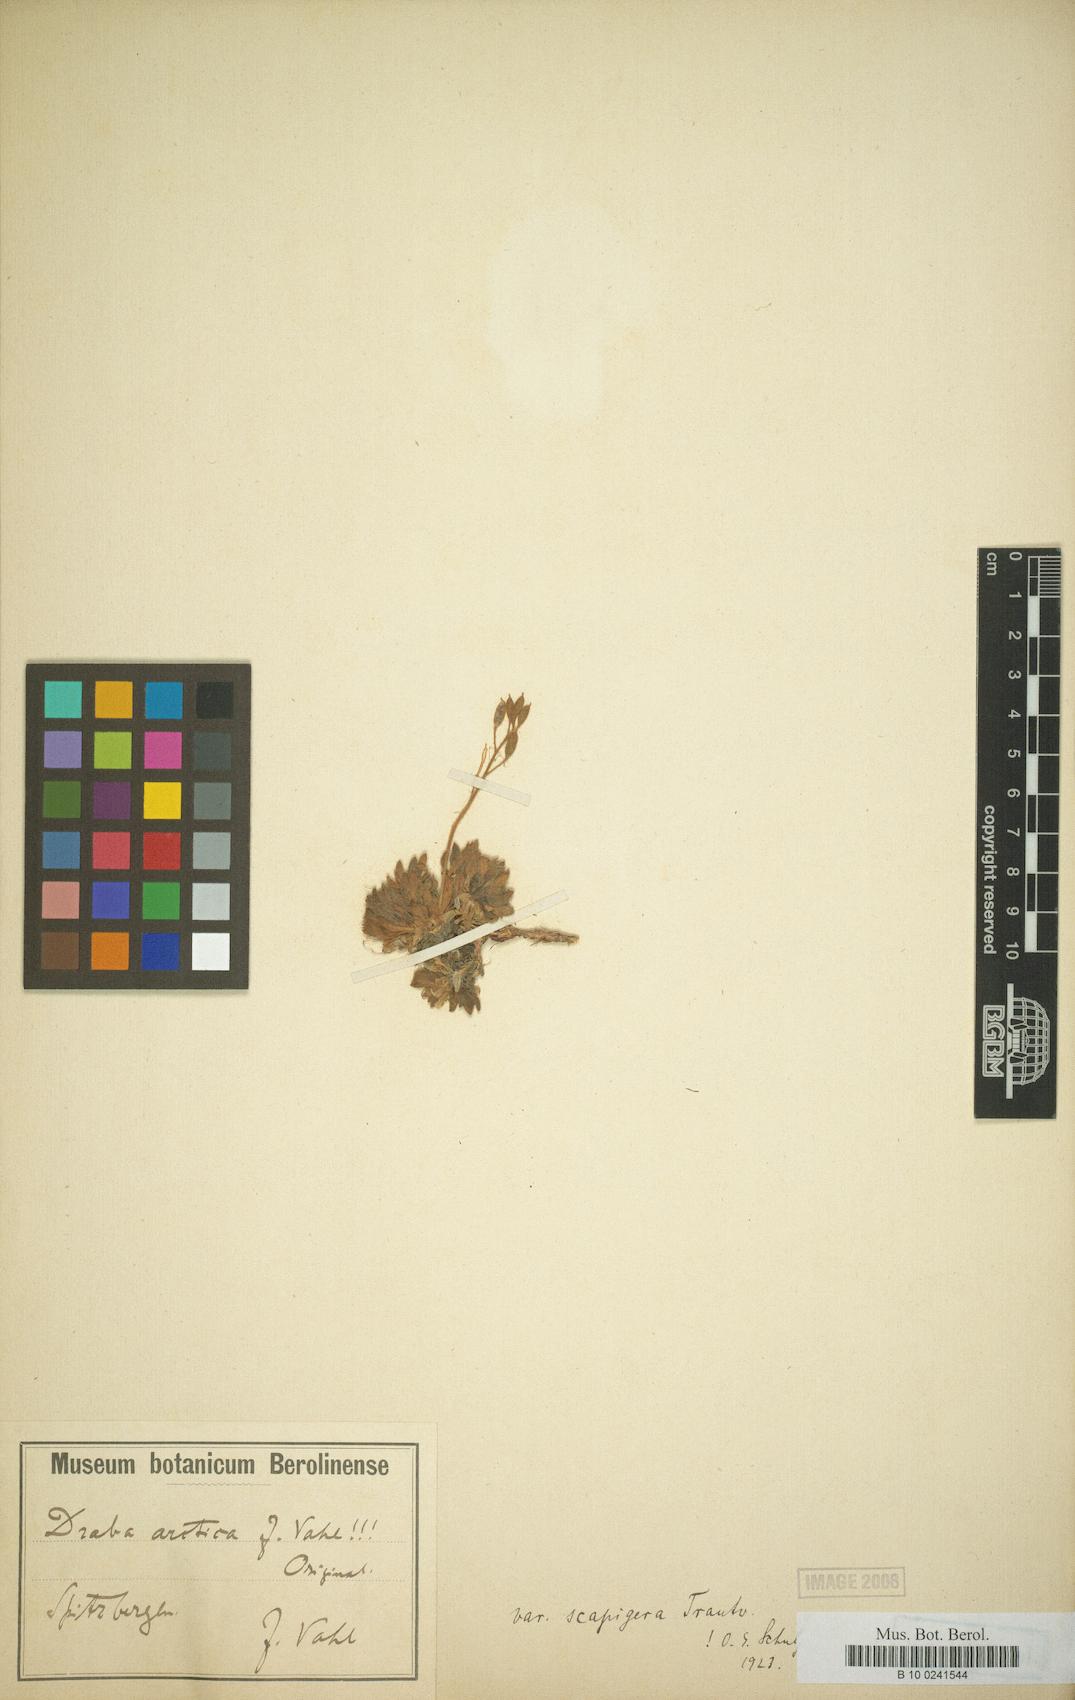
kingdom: Plantae
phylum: Tracheophyta
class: Magnoliopsida
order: Brassicales
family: Brassicaceae
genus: Draba
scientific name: Draba cinerea
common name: Ash-coloured whitlow-grass
